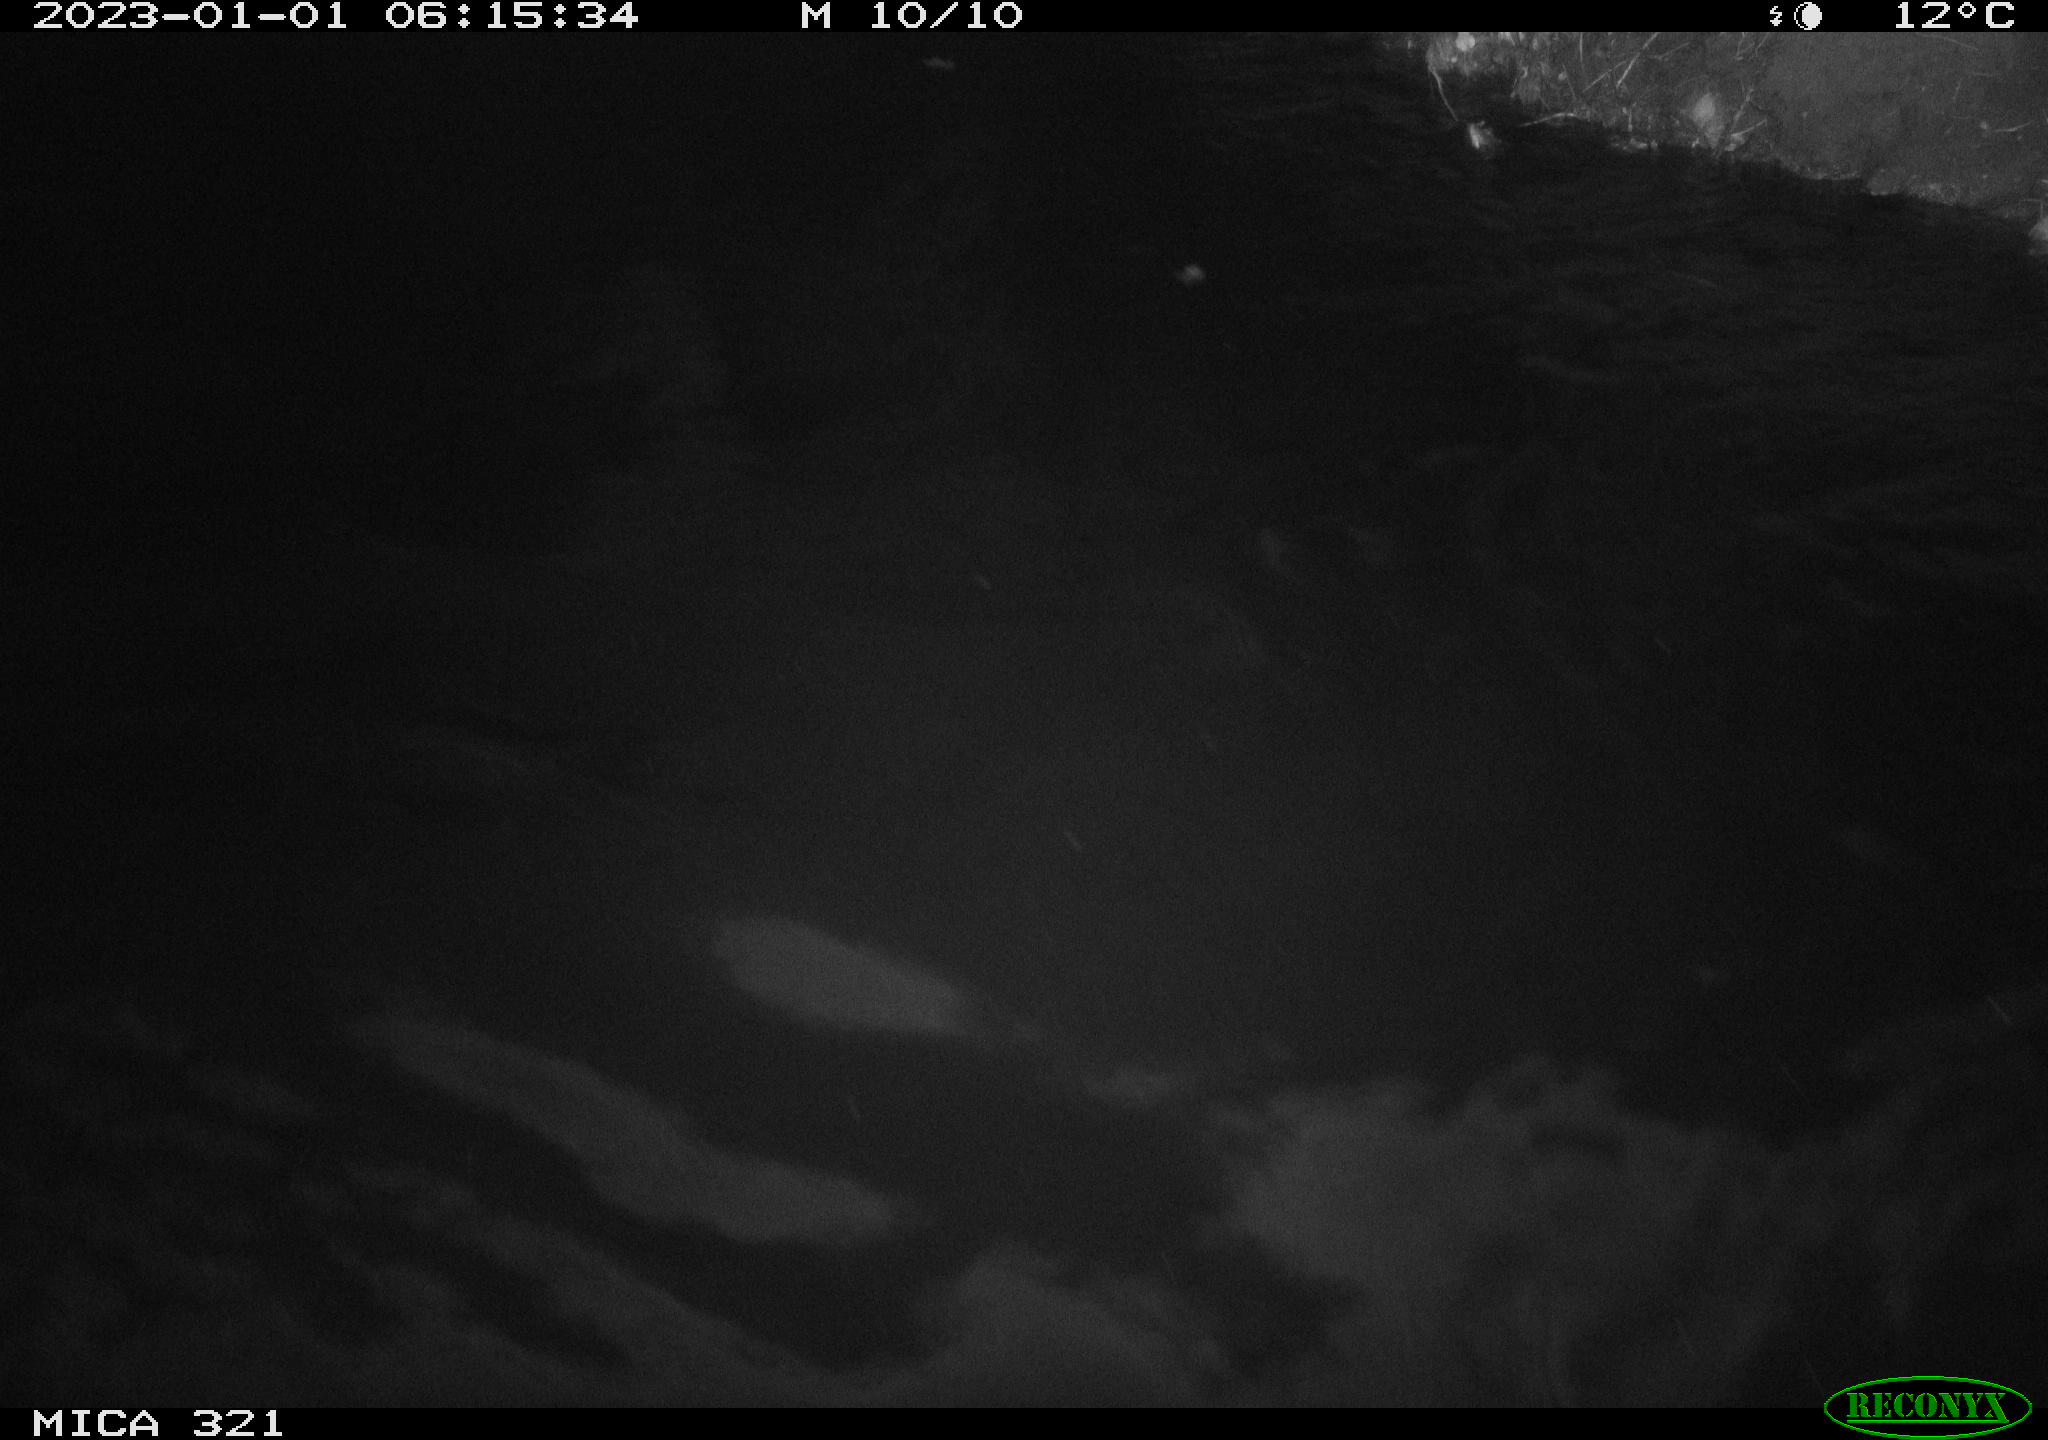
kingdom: Animalia
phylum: Chordata
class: Aves
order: Anseriformes
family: Anatidae
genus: Anas
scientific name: Anas
